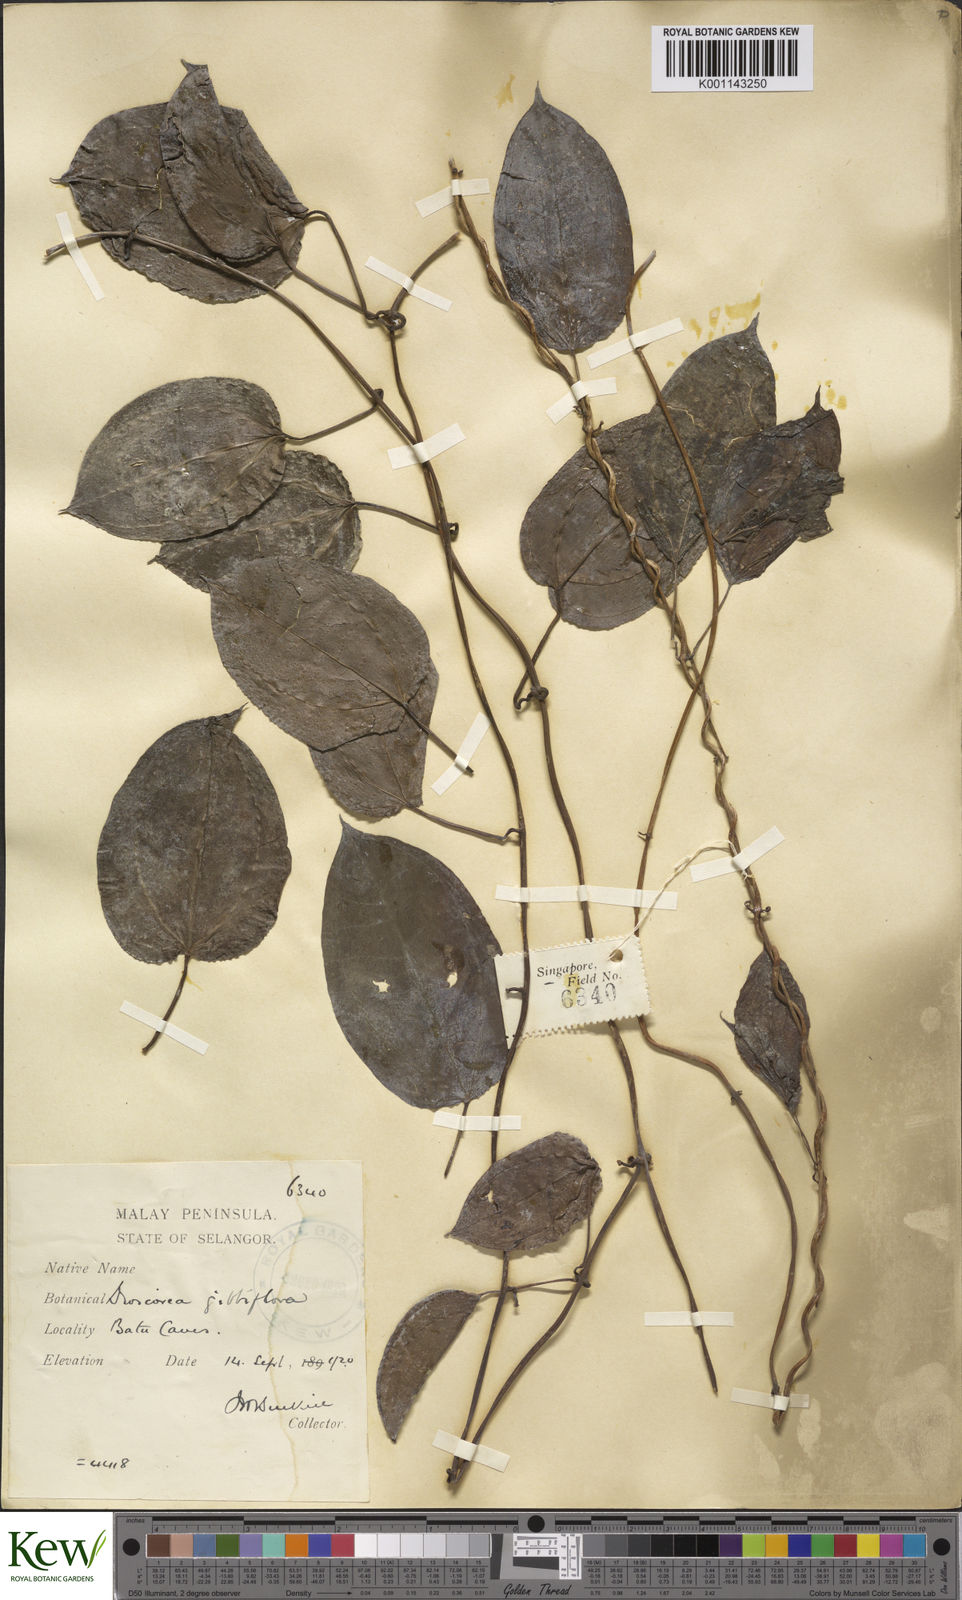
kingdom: Plantae
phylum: Tracheophyta
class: Liliopsida
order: Dioscoreales
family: Dioscoreaceae
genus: Dioscorea
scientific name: Dioscorea filiformis
